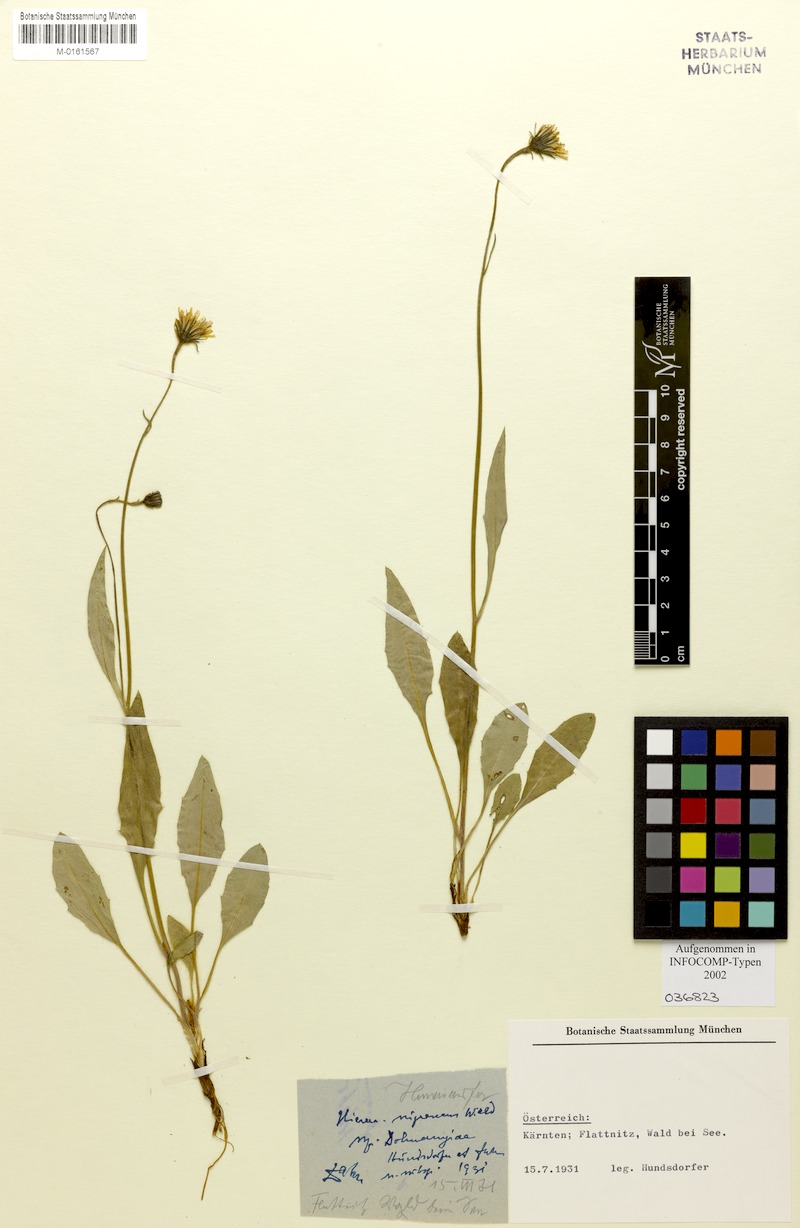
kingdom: Plantae
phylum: Tracheophyta
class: Magnoliopsida
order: Asterales
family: Asteraceae
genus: Hieracium
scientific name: Hieracium nigrescens
